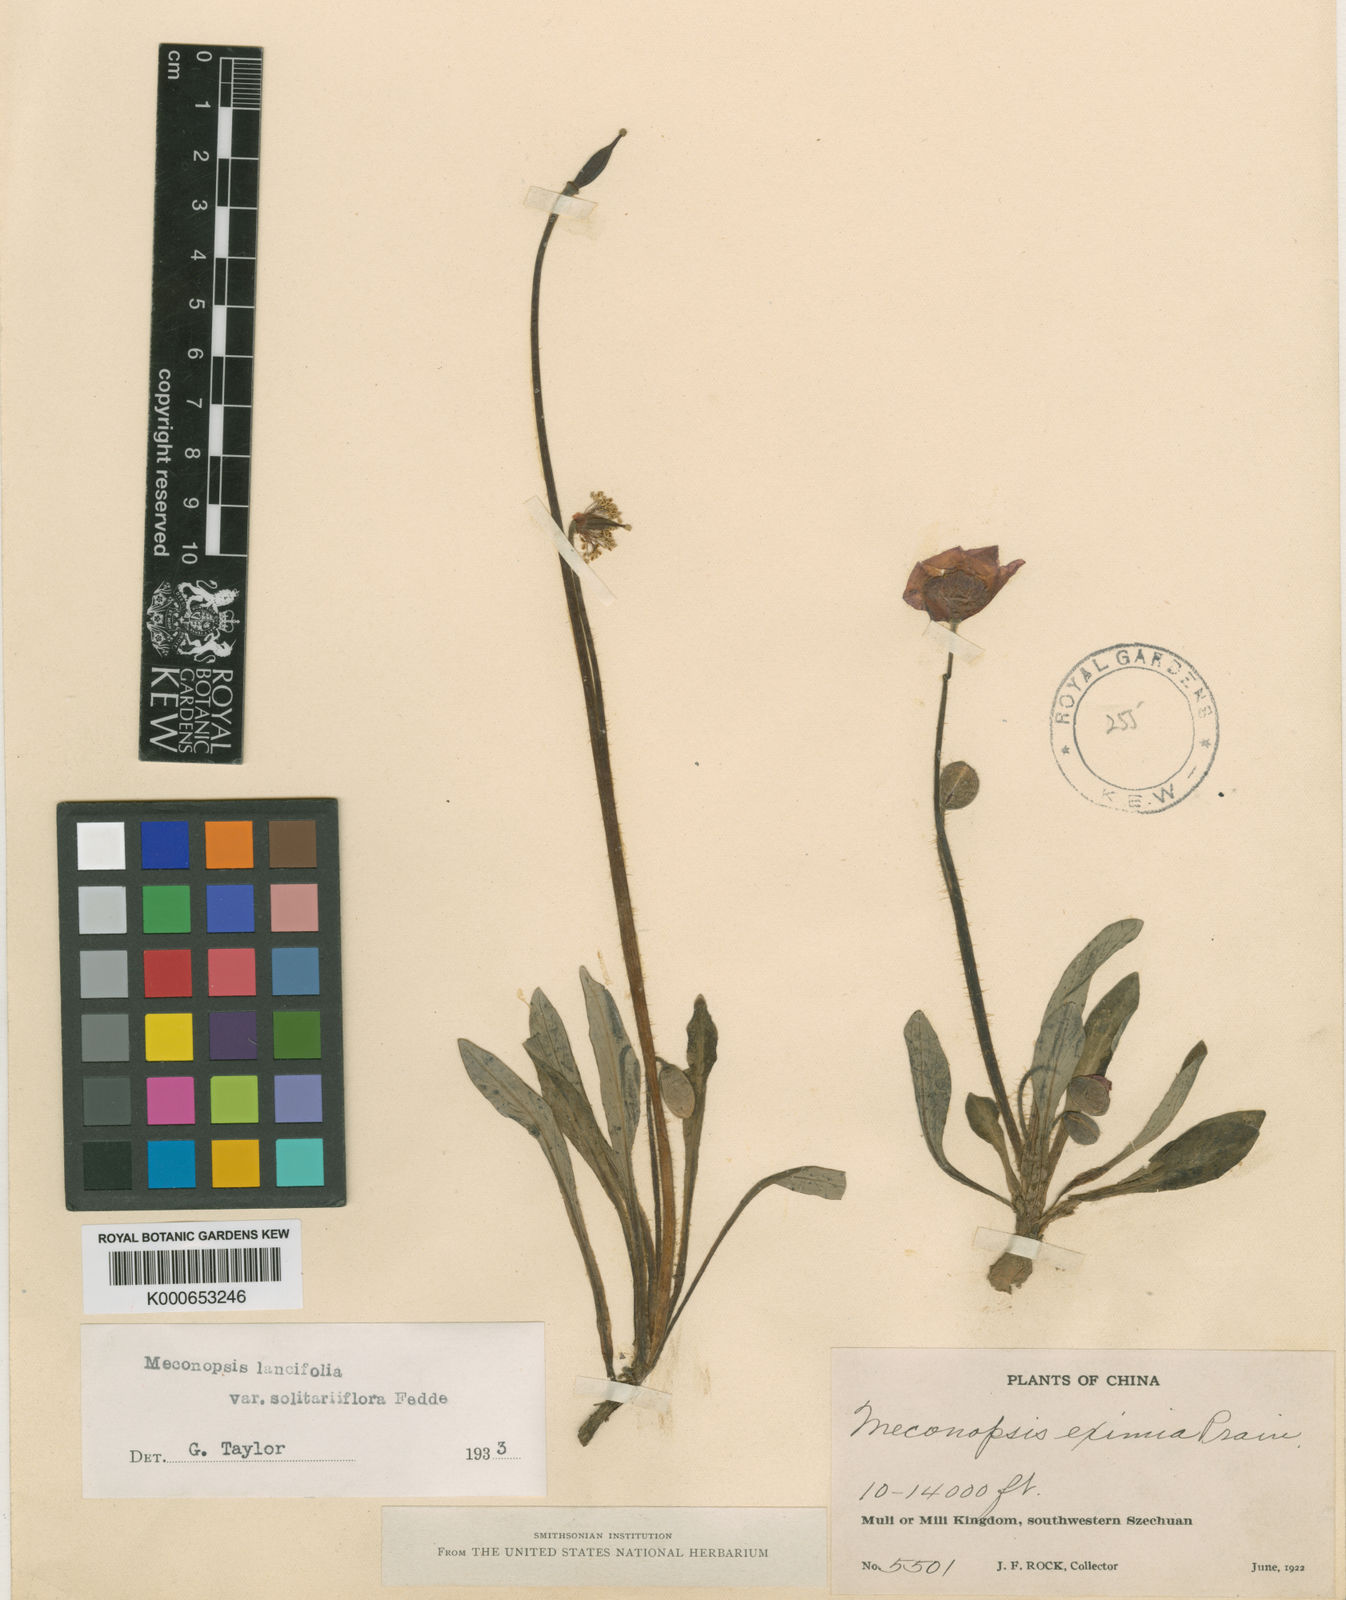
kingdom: Plantae
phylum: Tracheophyta
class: Magnoliopsida
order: Ranunculales
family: Papaveraceae
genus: Meconopsis
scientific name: Meconopsis lancifolia
